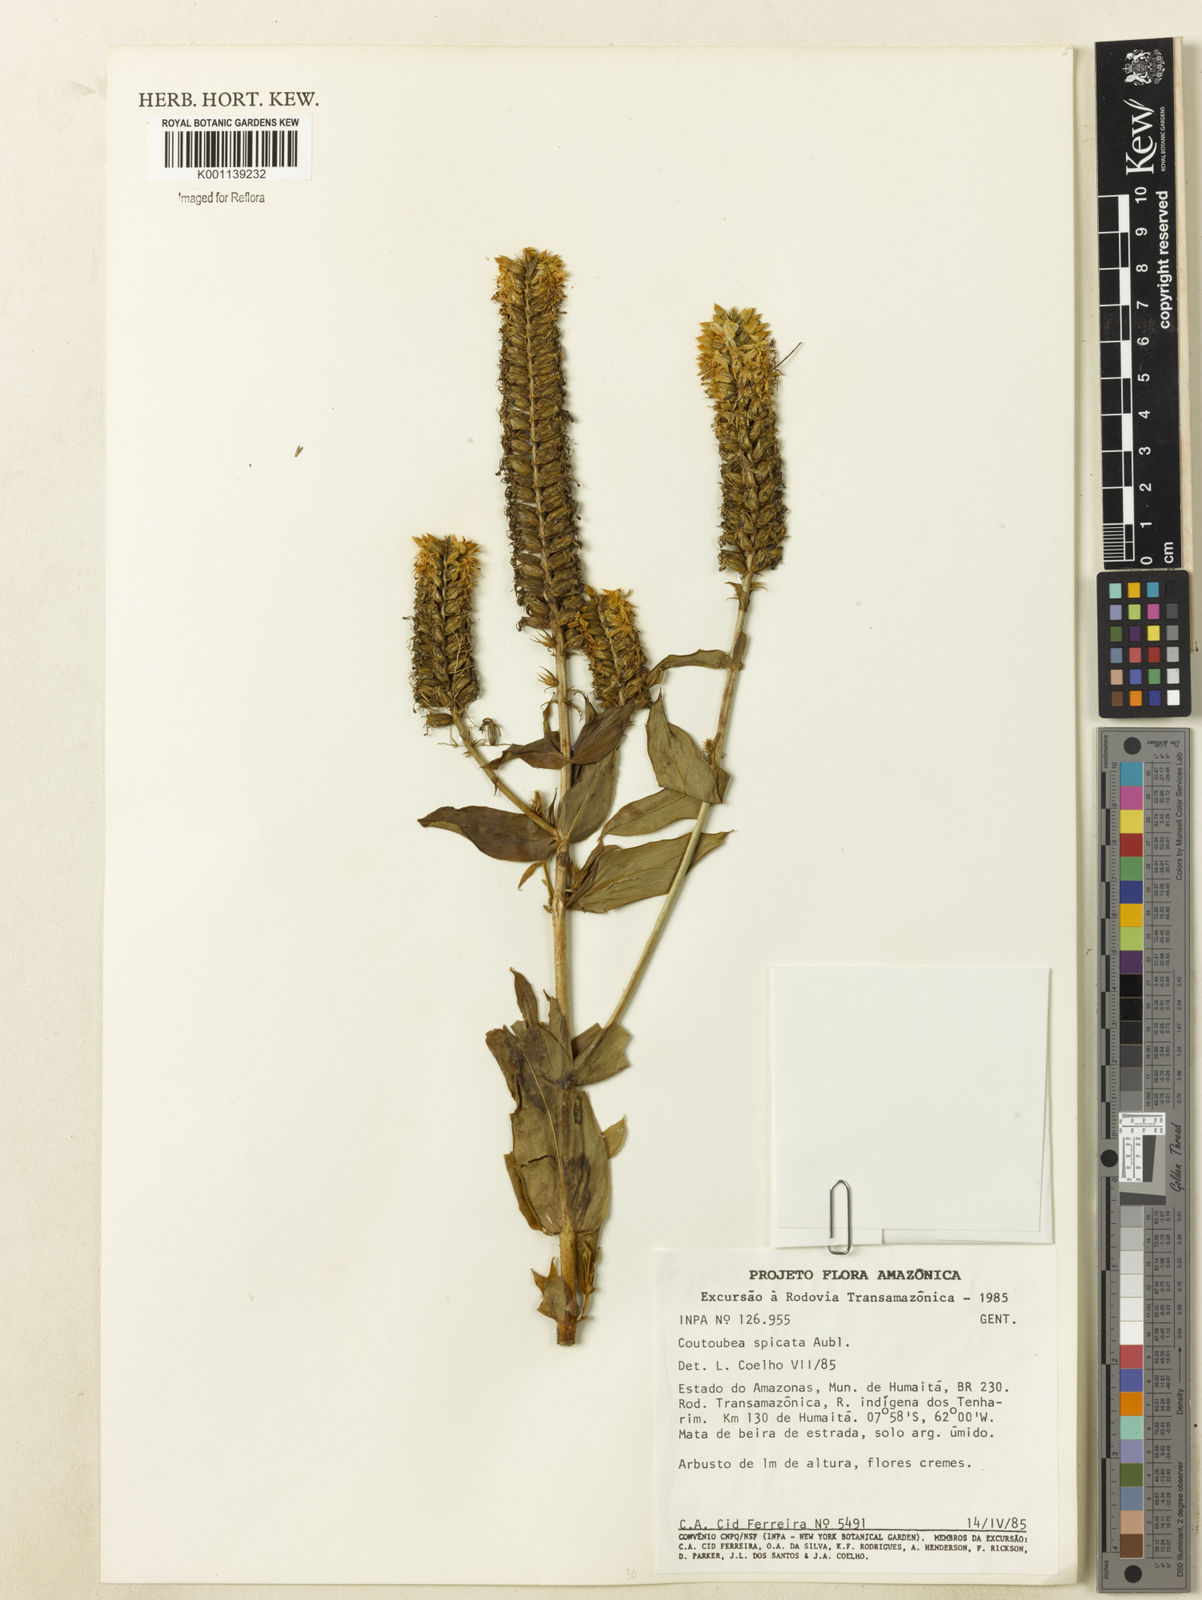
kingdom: Plantae
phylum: Tracheophyta
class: Magnoliopsida
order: Gentianales
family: Gentianaceae
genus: Coutoubea
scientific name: Coutoubea spicata
